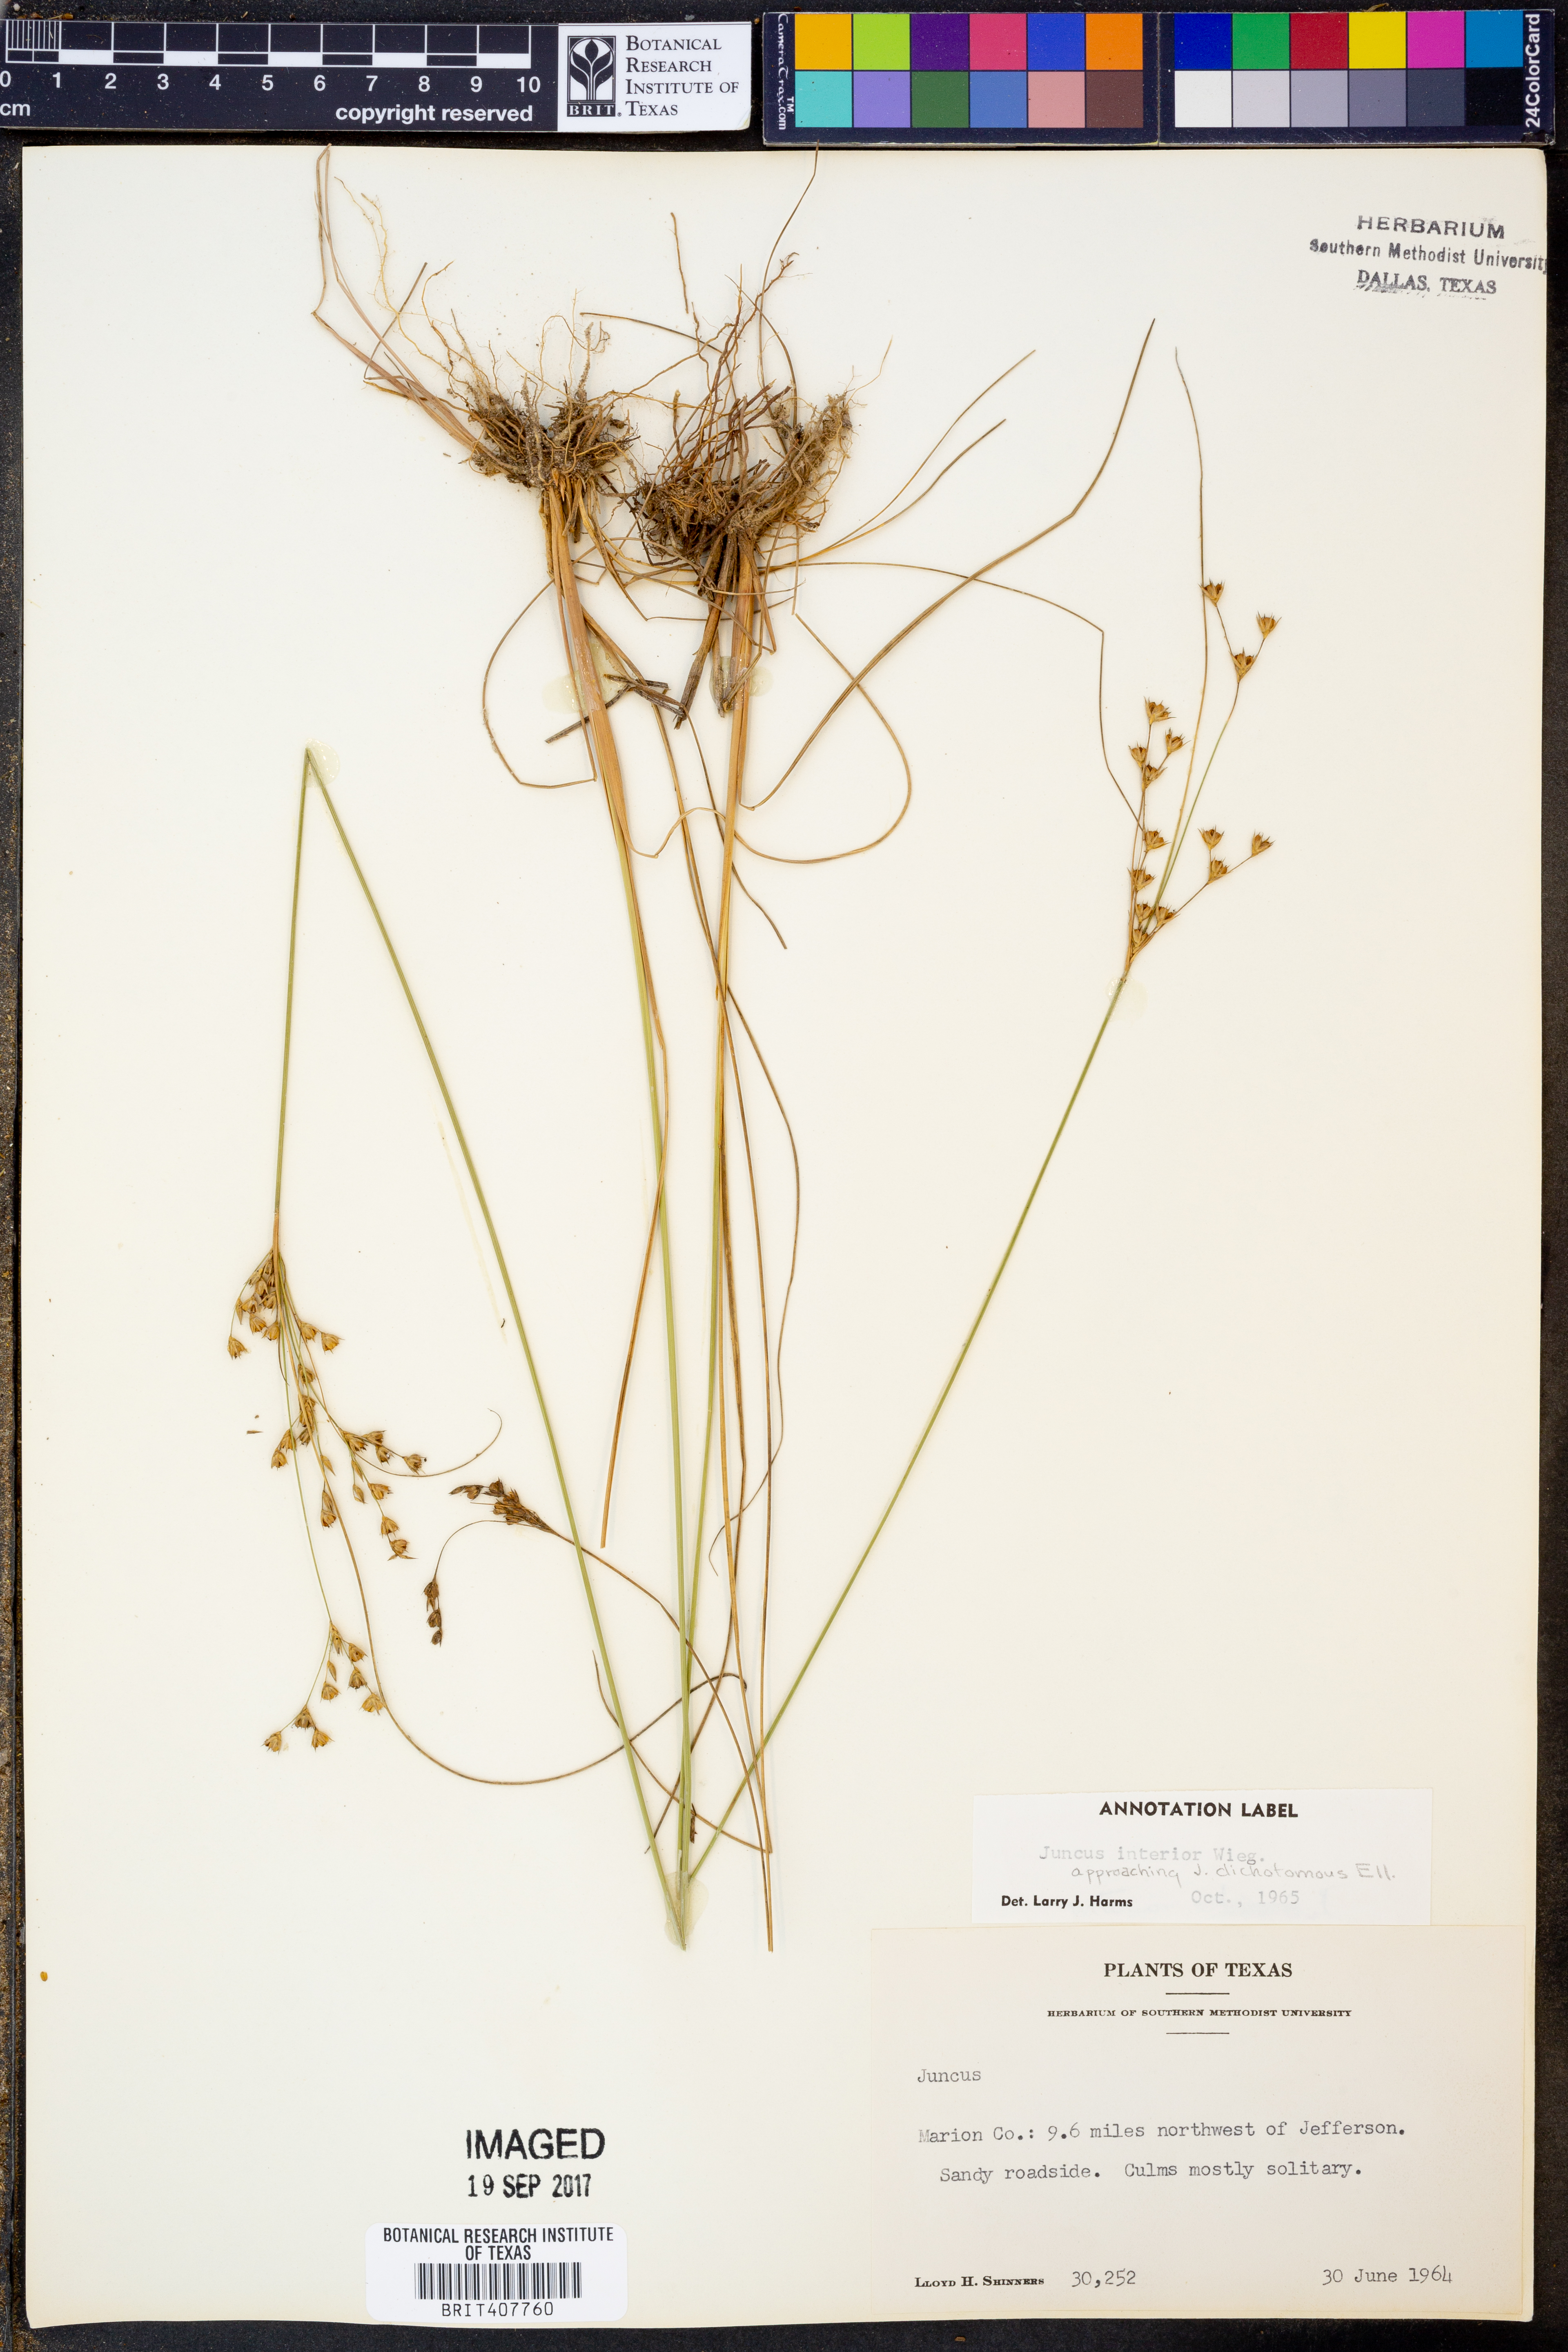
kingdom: Plantae
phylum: Tracheophyta
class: Liliopsida
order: Poales
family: Juncaceae
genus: Juncus
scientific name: Juncus interior
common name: Interior rush
